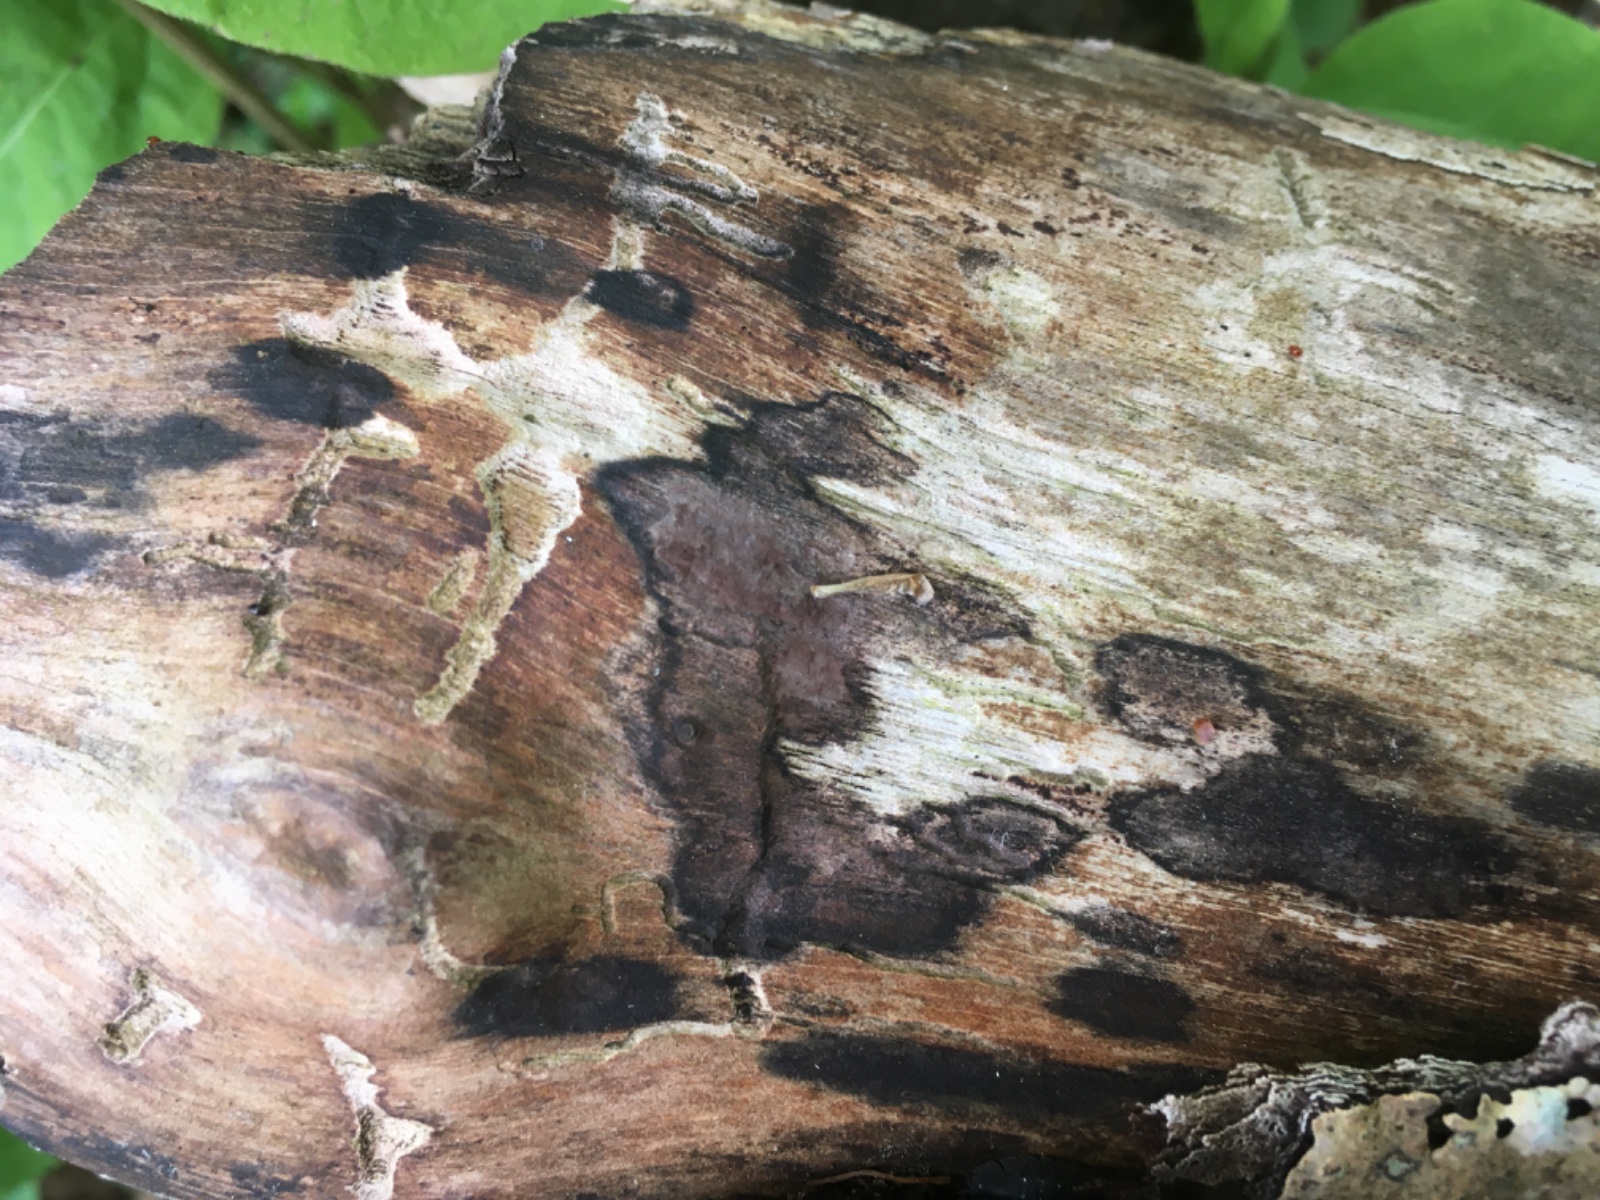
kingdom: Fungi
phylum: Ascomycota
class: Sordariomycetes
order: Xylariales
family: Hypoxylaceae
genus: Hypoxylon
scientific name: Hypoxylon petriniae
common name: nedsænket kulbær
